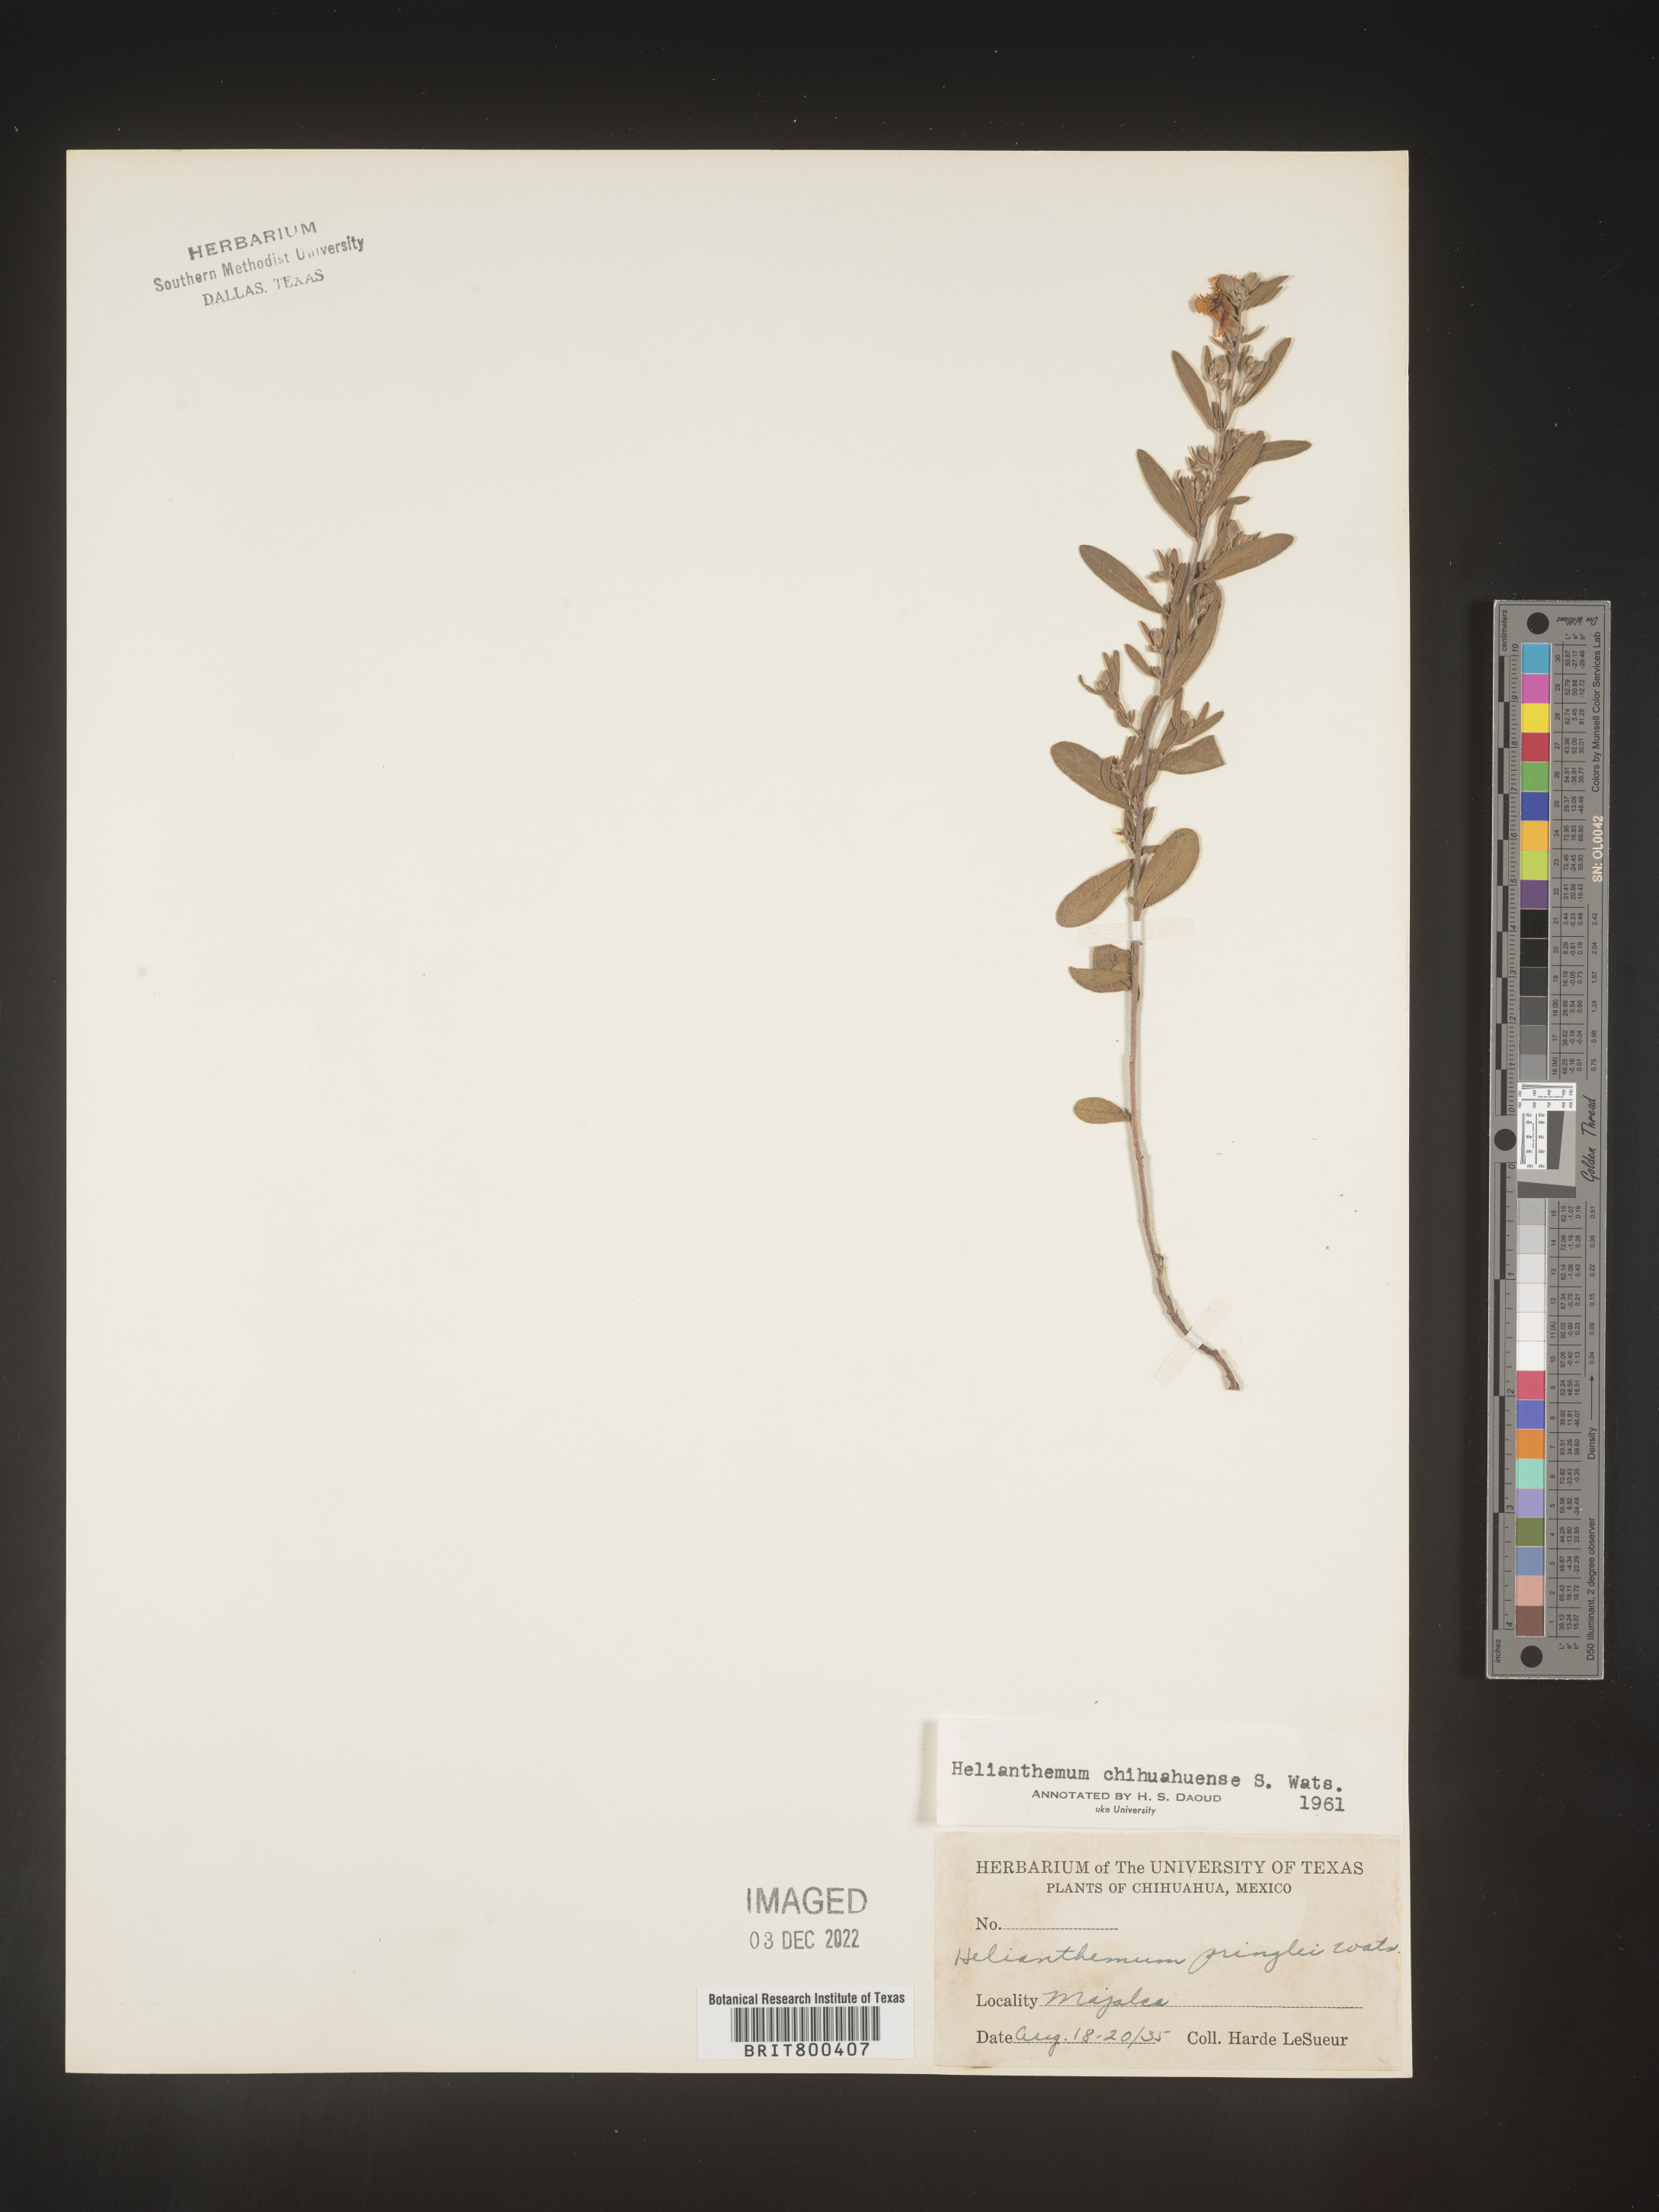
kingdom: Plantae
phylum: Tracheophyta
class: Magnoliopsida
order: Malvales
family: Cistaceae
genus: Helianthemum
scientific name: Helianthemum
